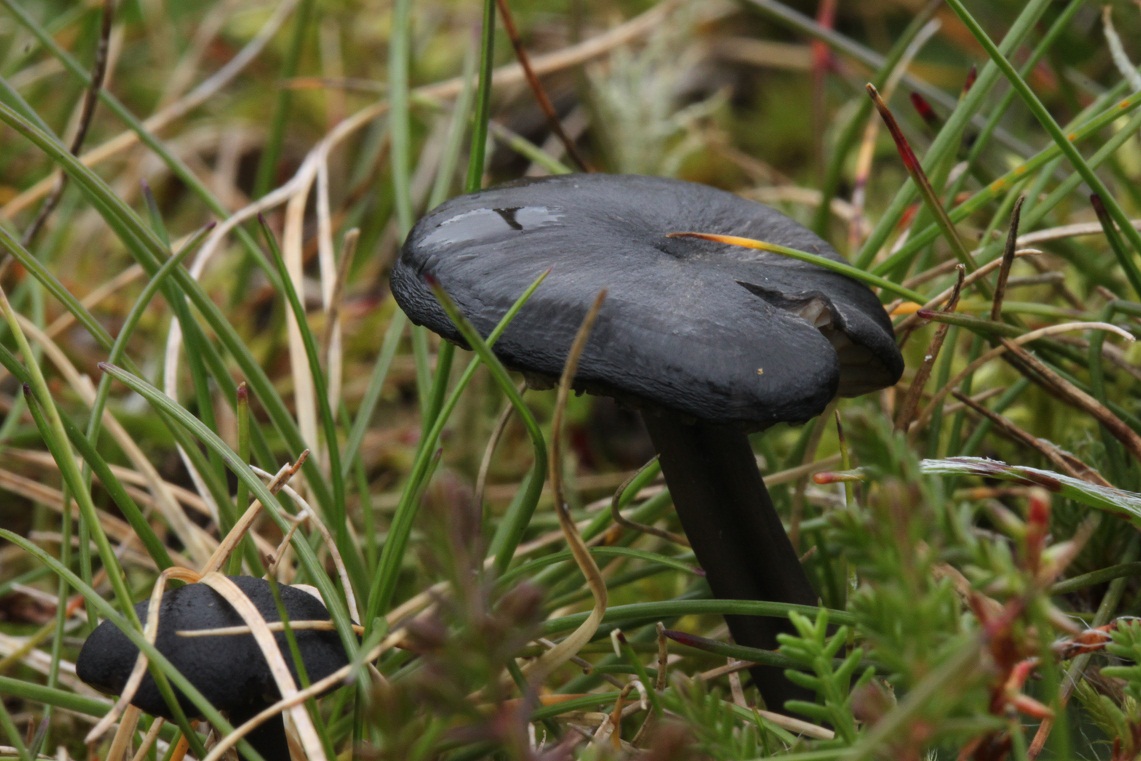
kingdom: Fungi
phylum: Basidiomycota
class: Agaricomycetes
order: Agaricales
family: Entolomataceae
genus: Entoloma
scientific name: Entoloma chalybeum
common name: blåbladet rødblad
